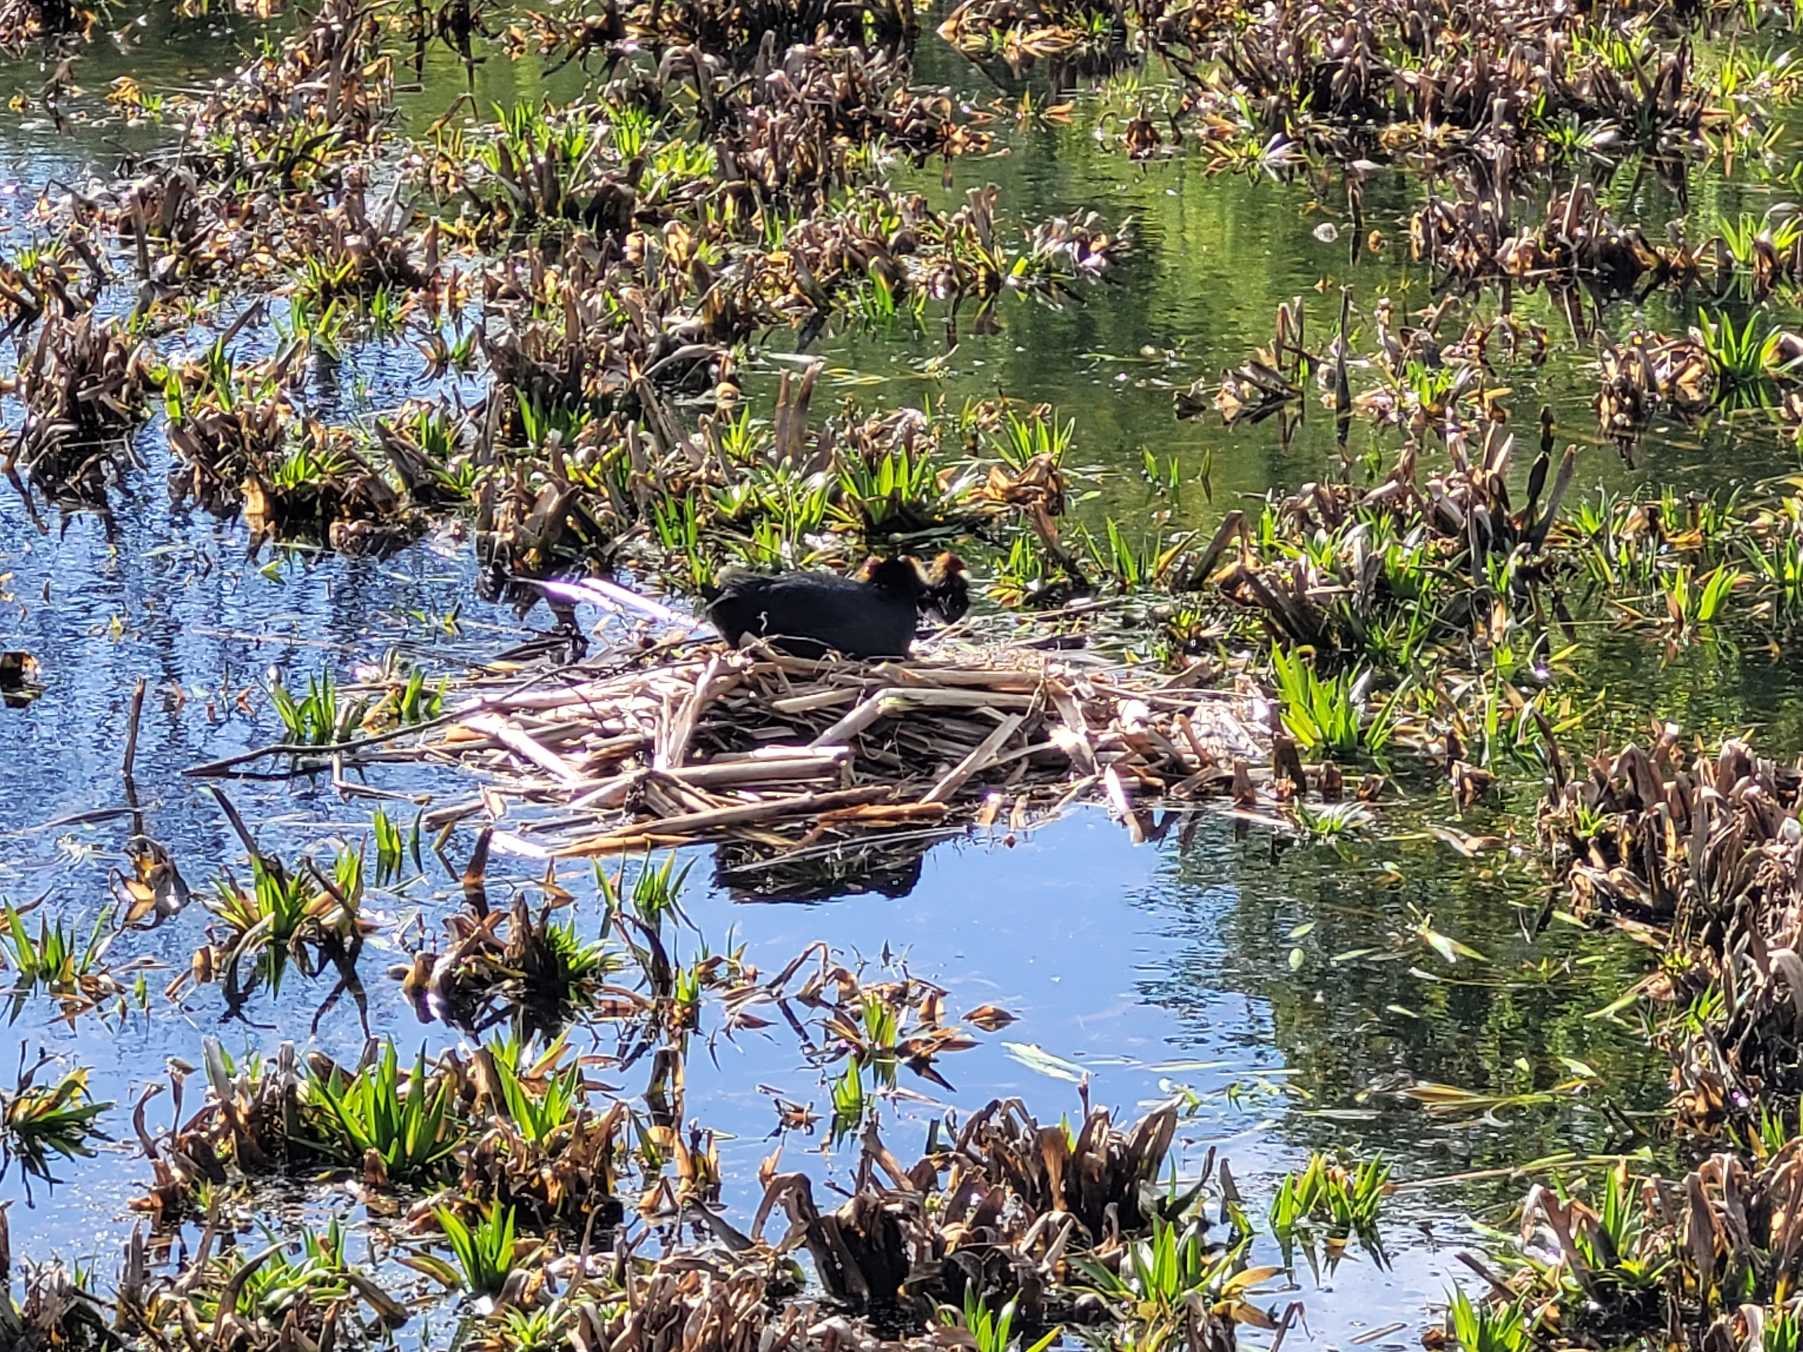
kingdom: Animalia
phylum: Chordata
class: Aves
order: Gruiformes
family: Rallidae
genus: Fulica
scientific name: Fulica atra
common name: Blishøne
